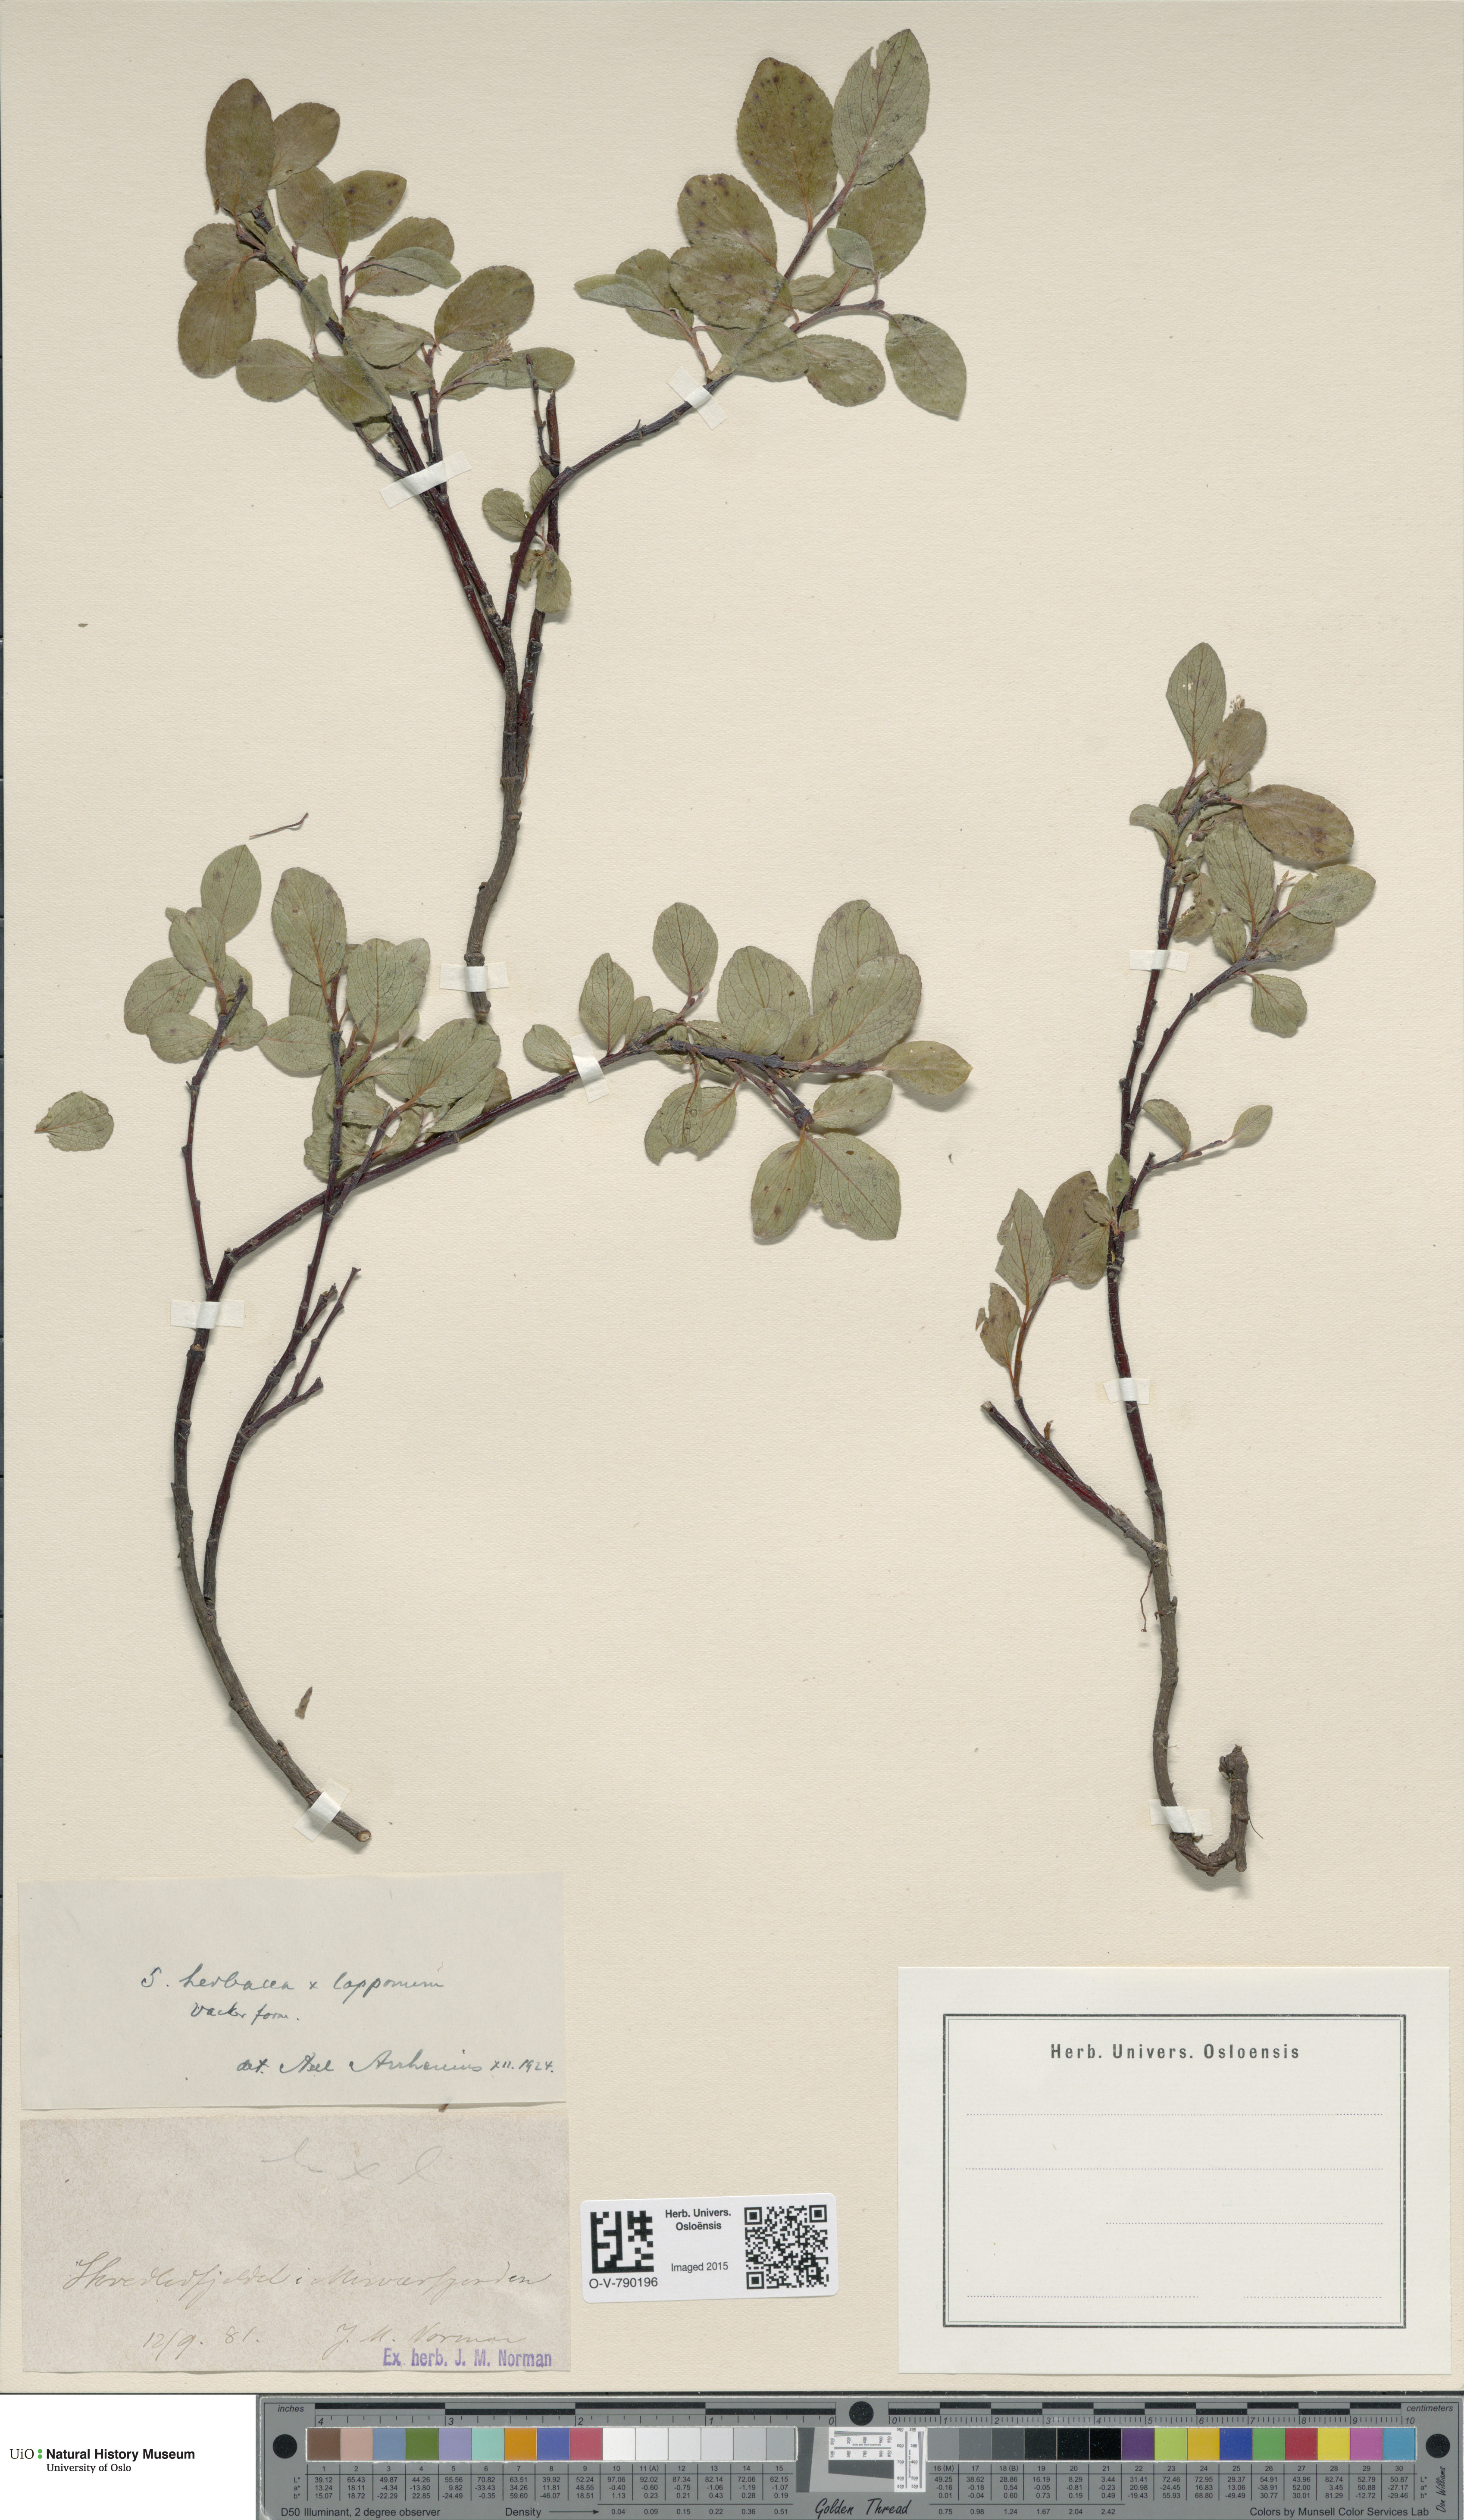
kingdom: Plantae
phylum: Tracheophyta
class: Magnoliopsida
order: Malpighiales
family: Salicaceae
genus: Salix
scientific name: Salix
